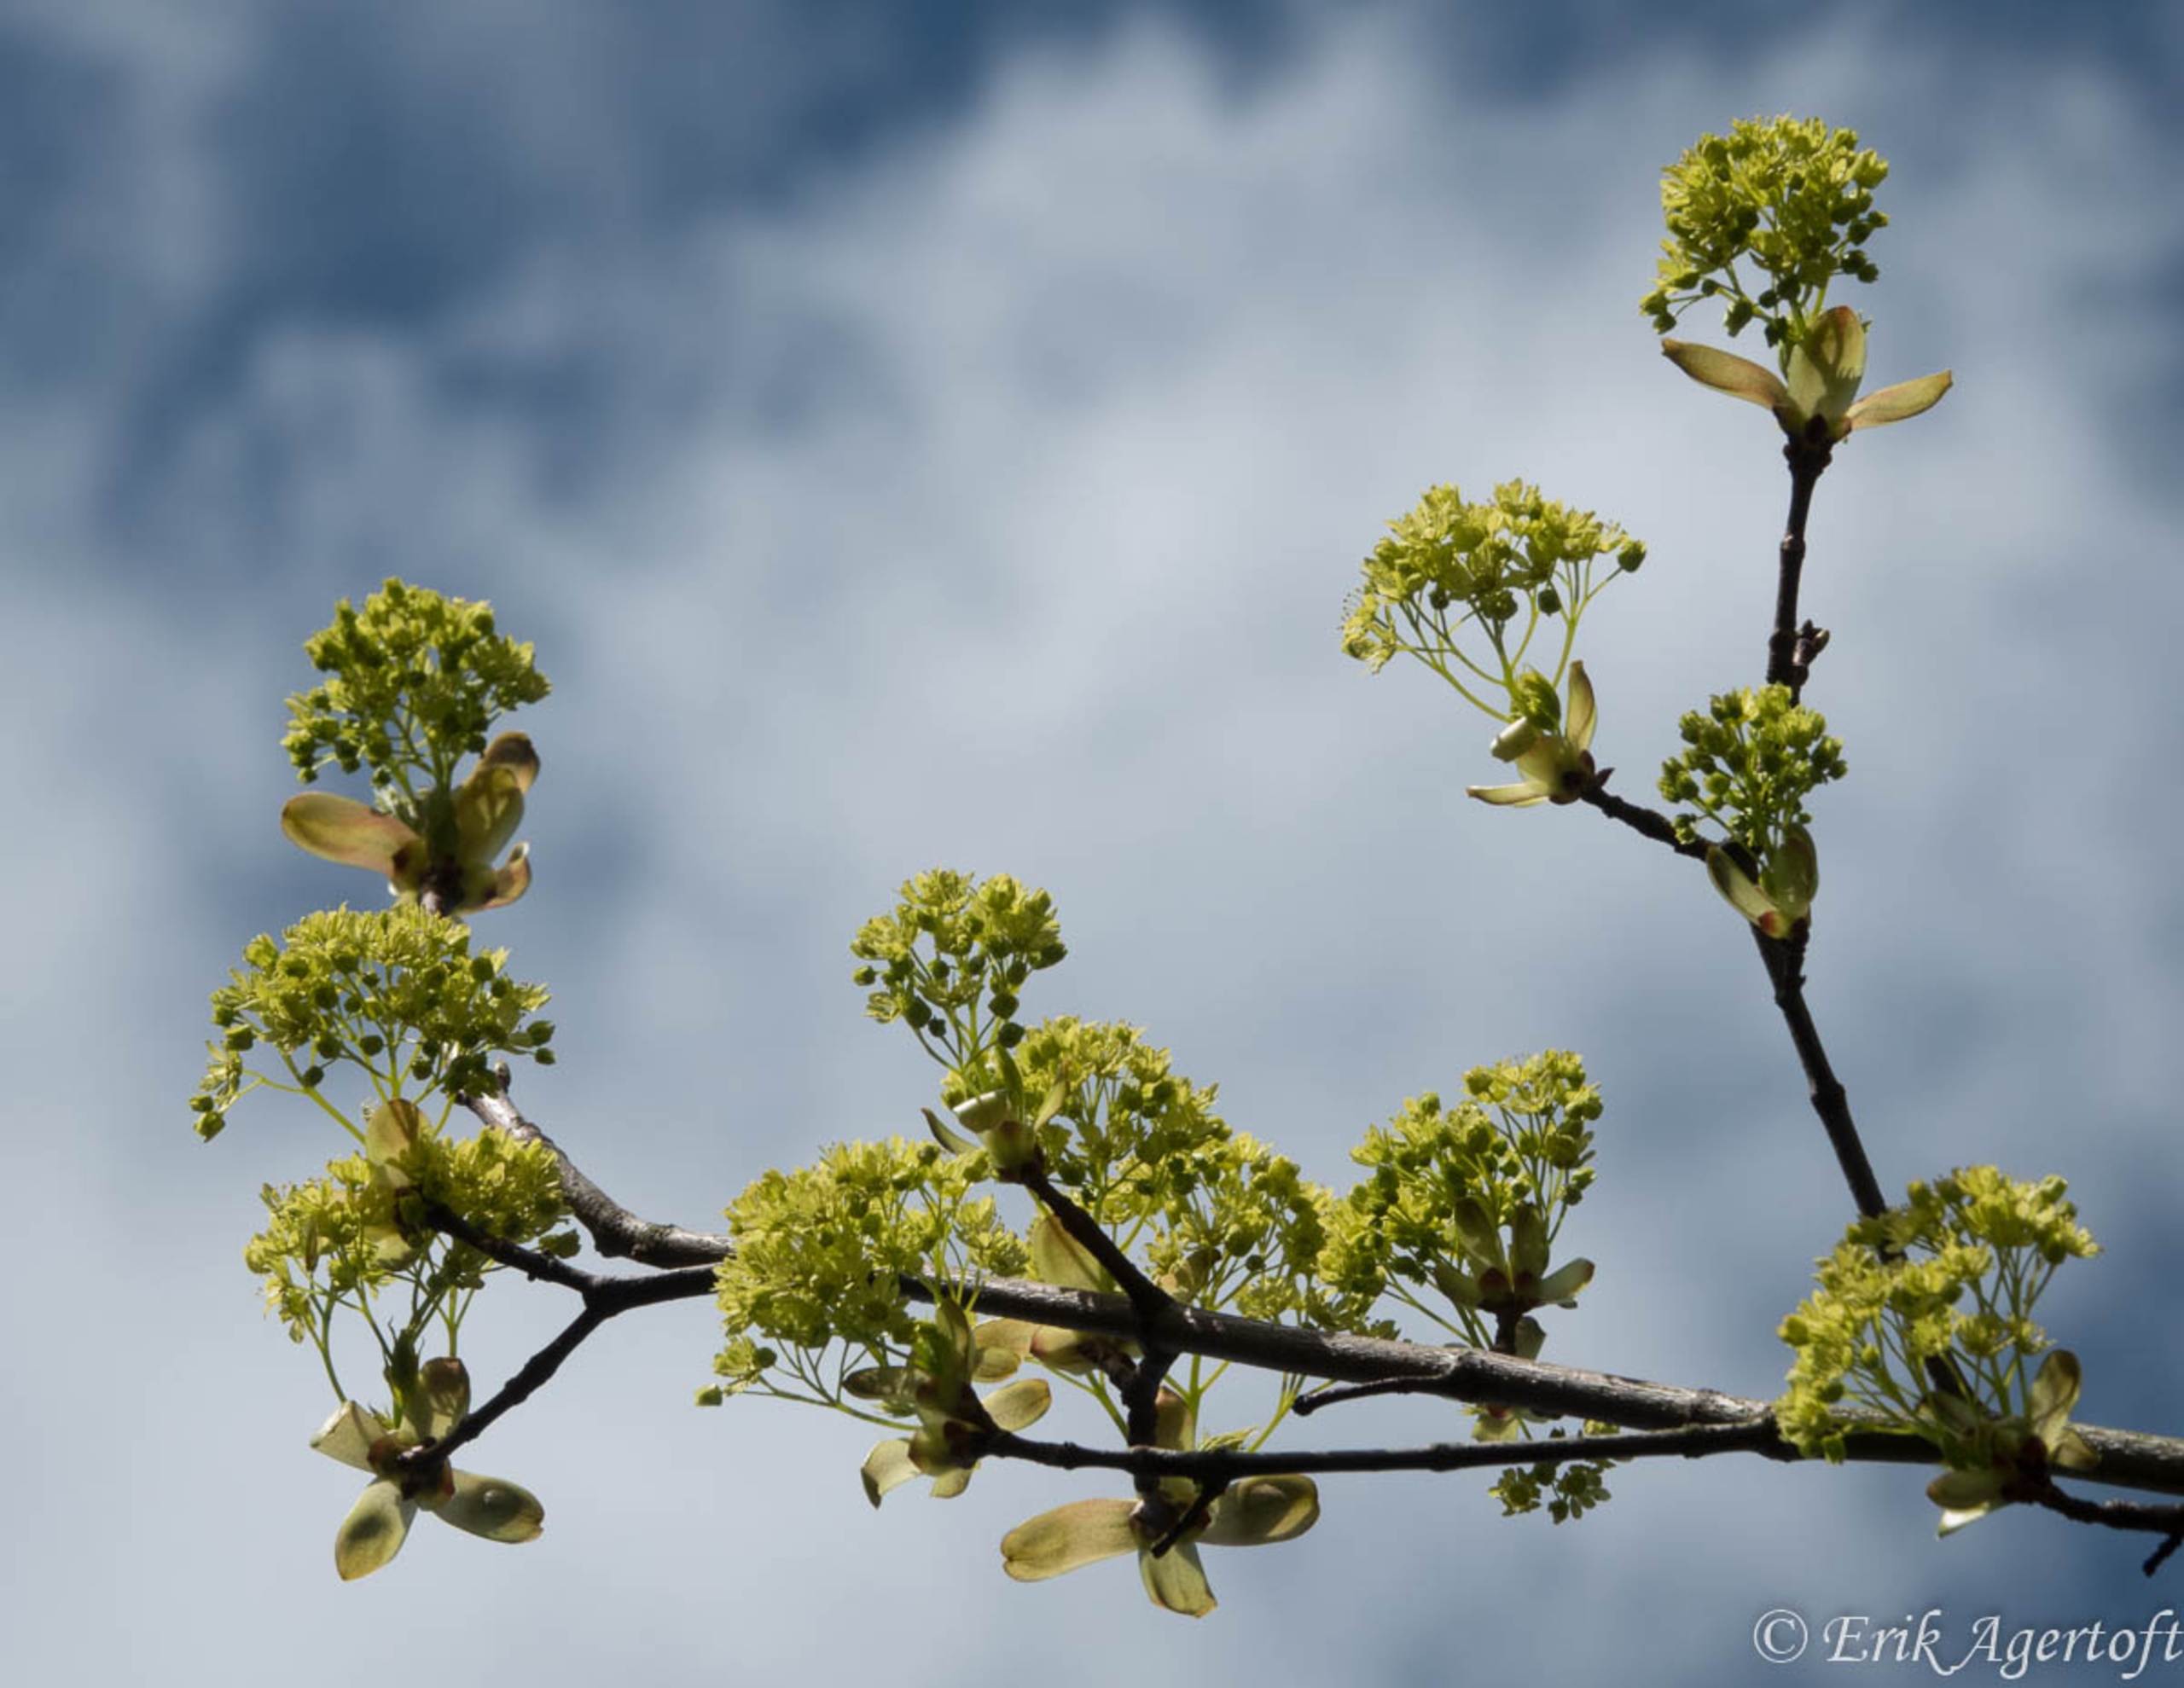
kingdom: Plantae
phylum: Tracheophyta
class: Magnoliopsida
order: Sapindales
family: Sapindaceae
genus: Acer
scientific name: Acer platanoides
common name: Spids-løn
